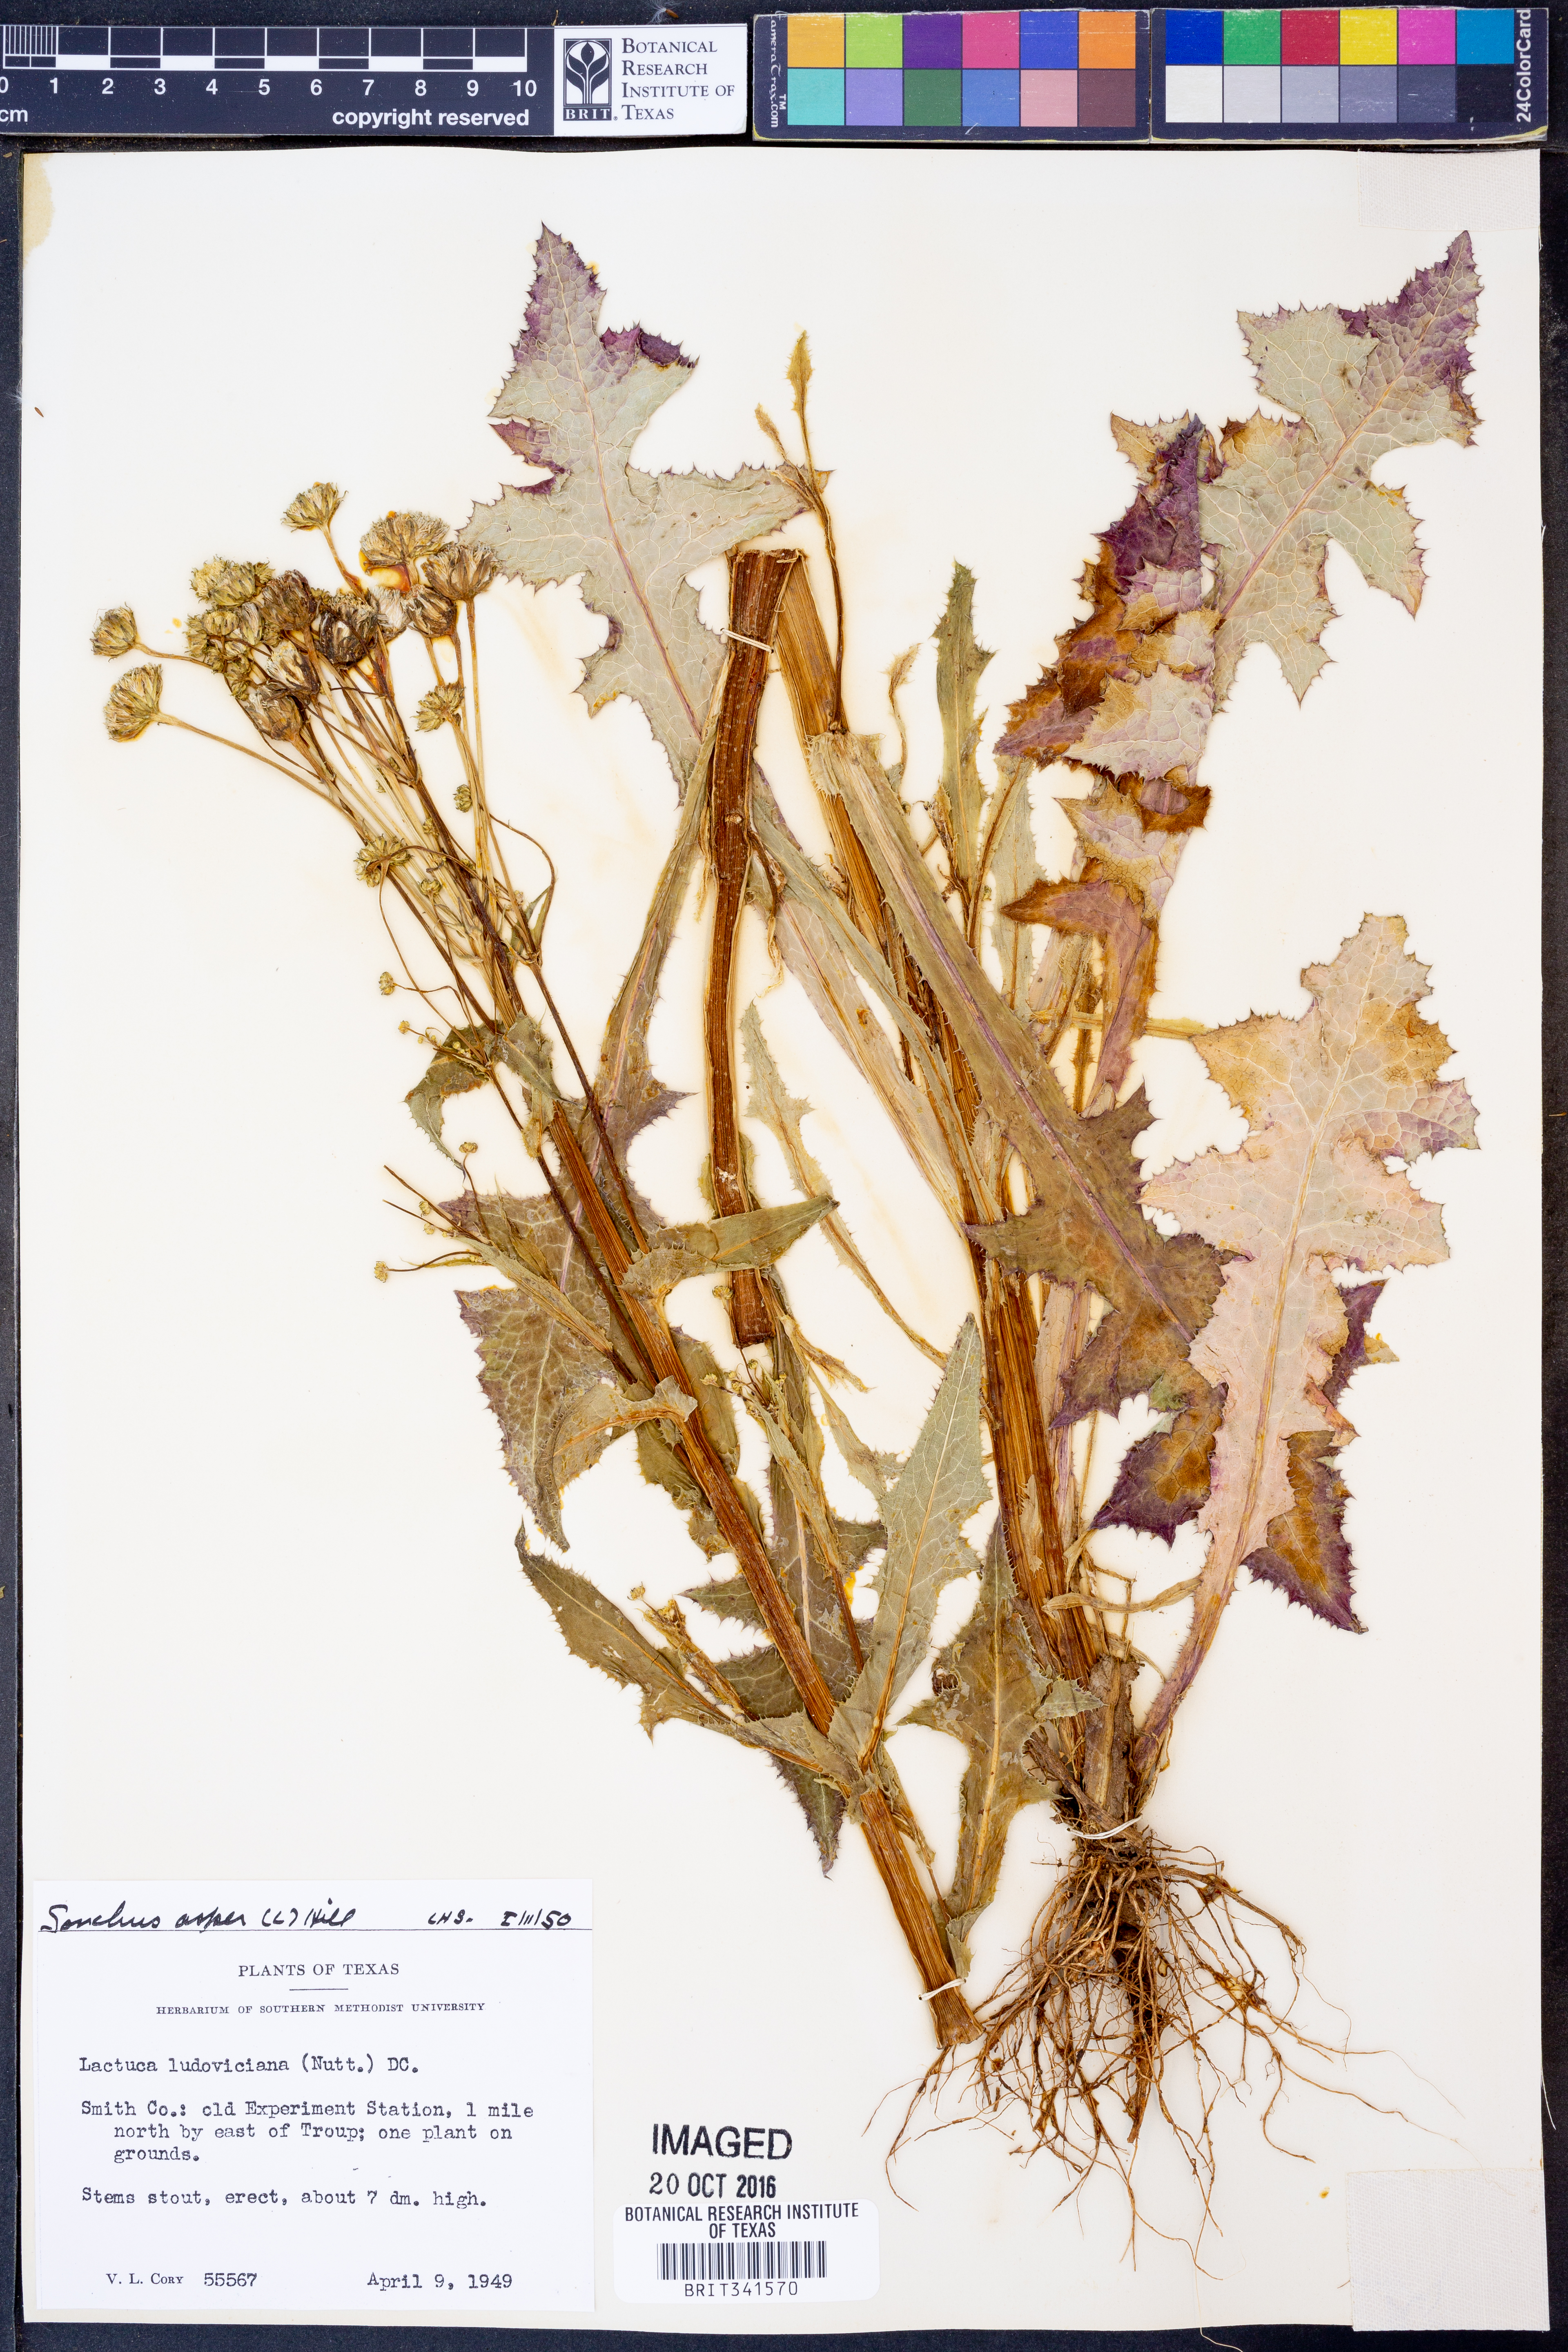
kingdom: Plantae
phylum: Tracheophyta
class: Magnoliopsida
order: Asterales
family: Asteraceae
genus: Sonchus
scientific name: Sonchus asper
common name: Prickly sow-thistle
